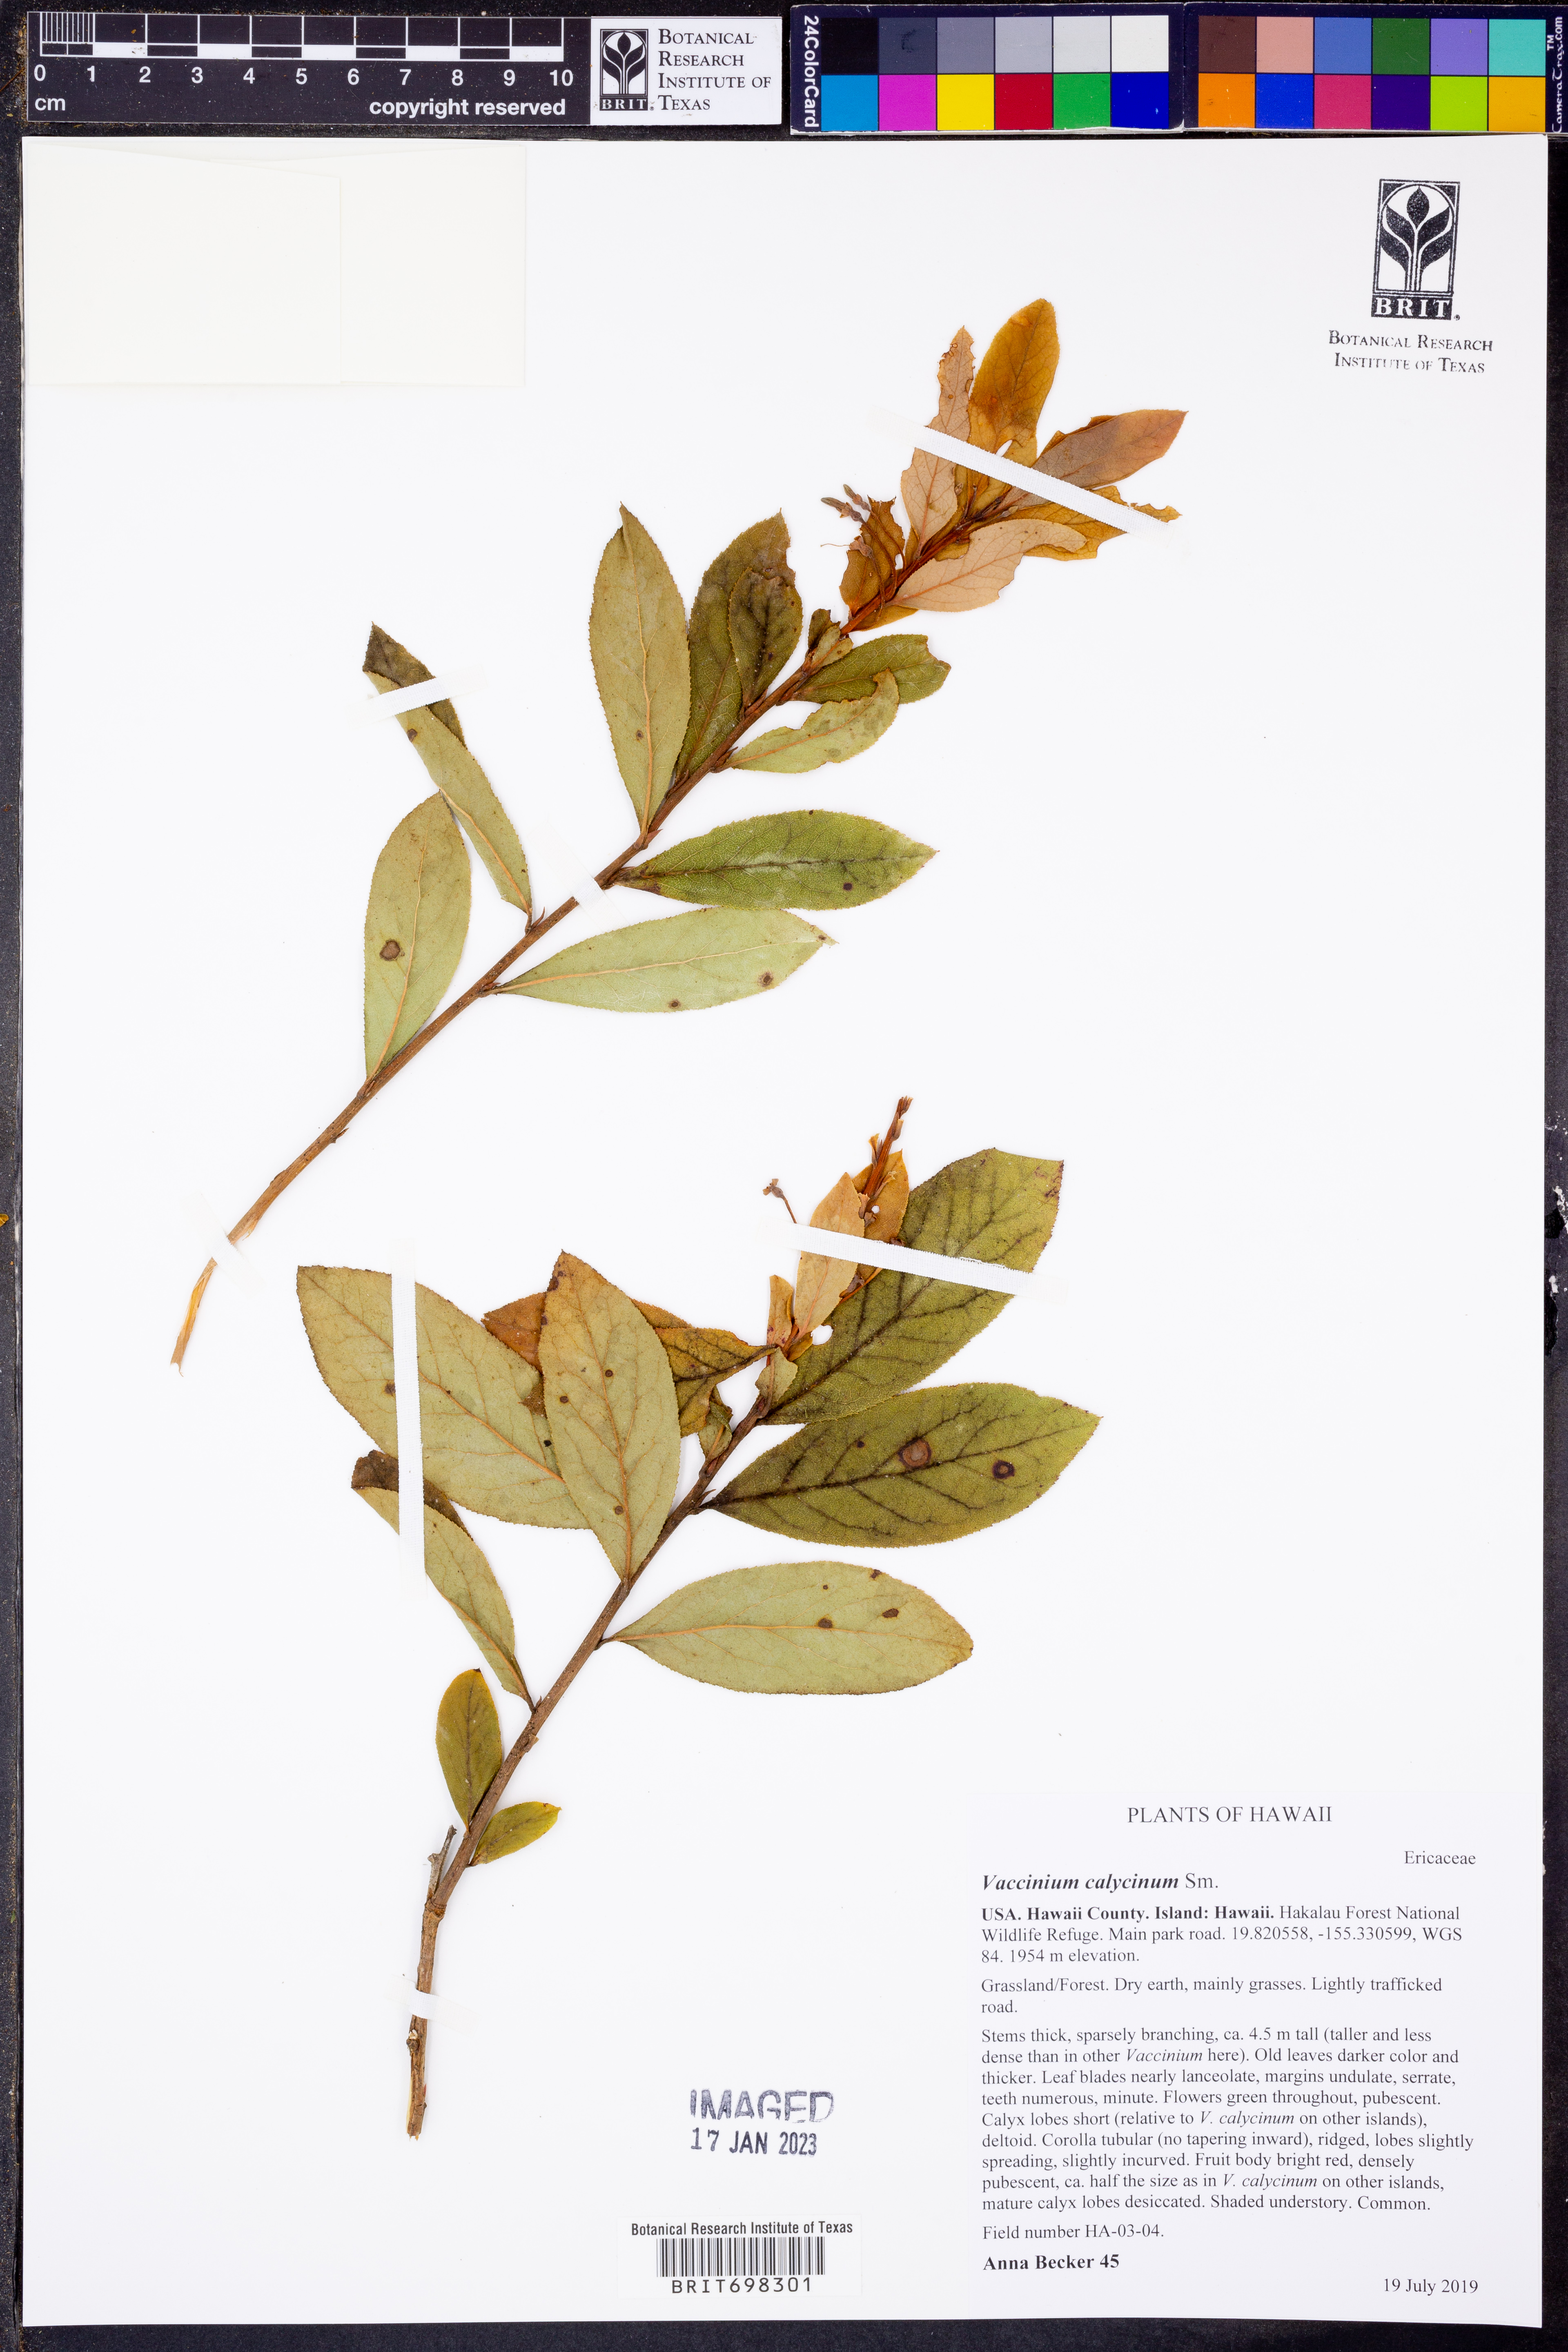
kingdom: Plantae
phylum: Tracheophyta
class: Magnoliopsida
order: Ericales
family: Ericaceae
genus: Vaccinium
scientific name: Vaccinium calycinum
